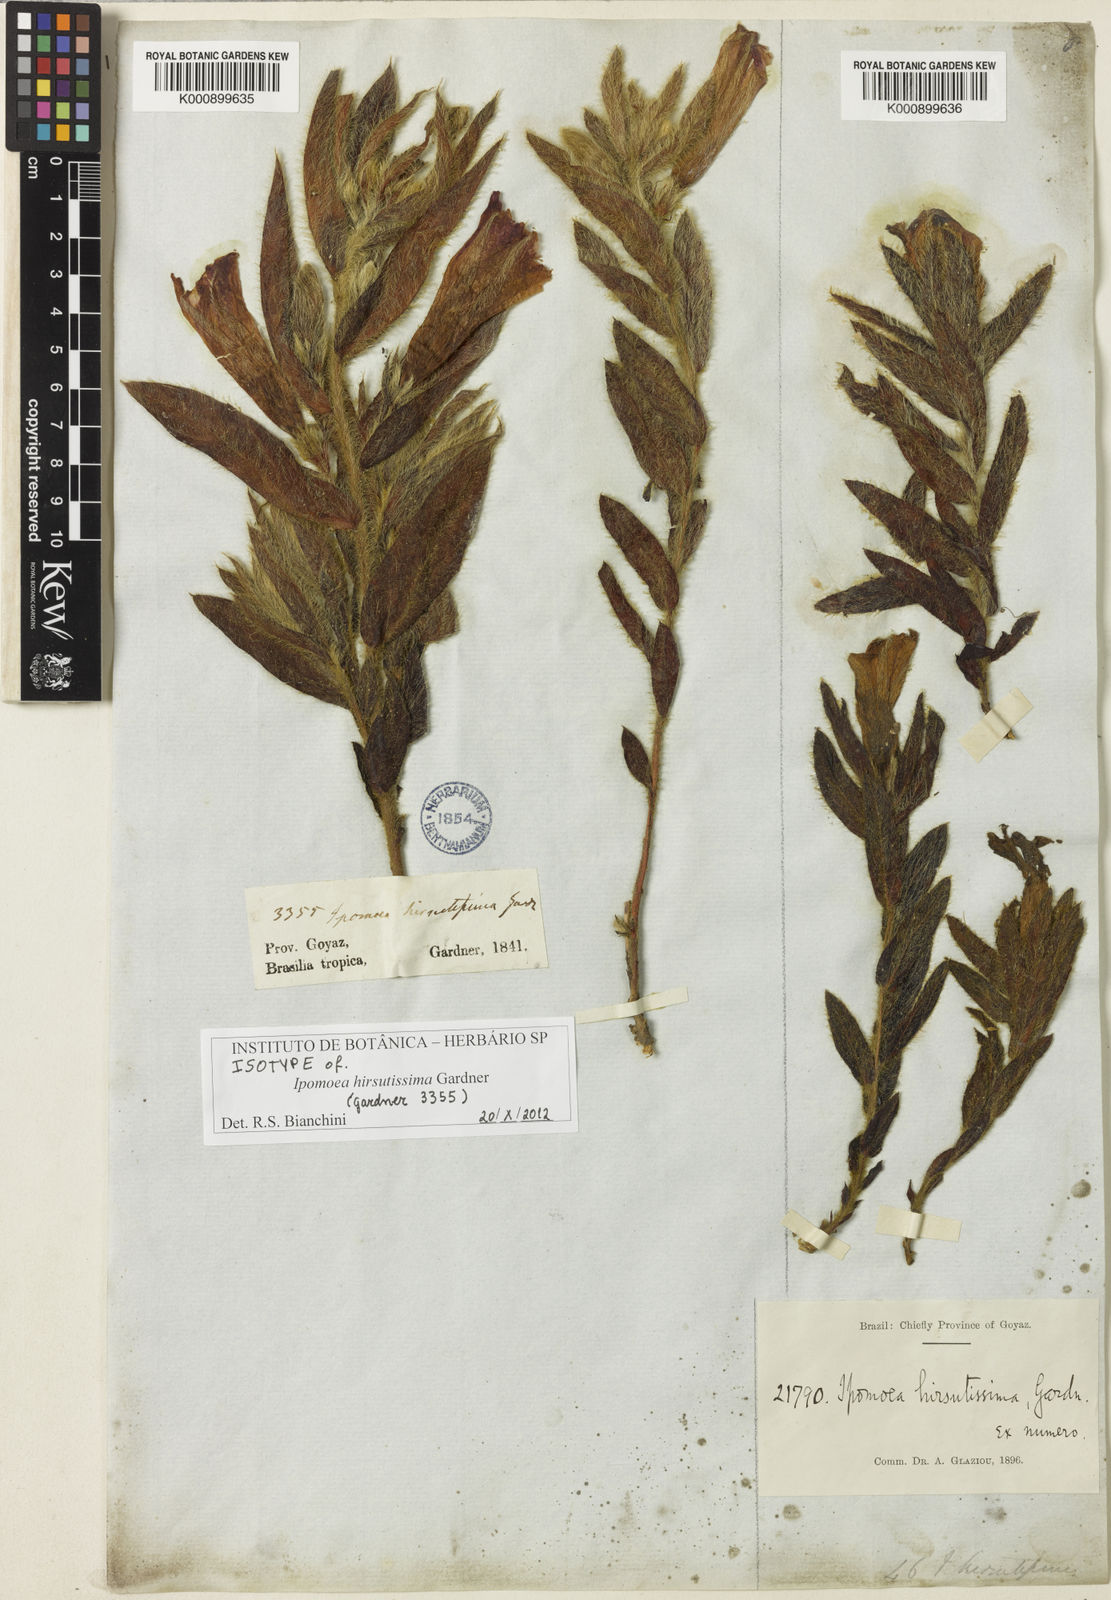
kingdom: Plantae
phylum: Tracheophyta
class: Magnoliopsida
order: Solanales
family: Convolvulaceae
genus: Ipomoea
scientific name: Ipomoea hirsutissima
